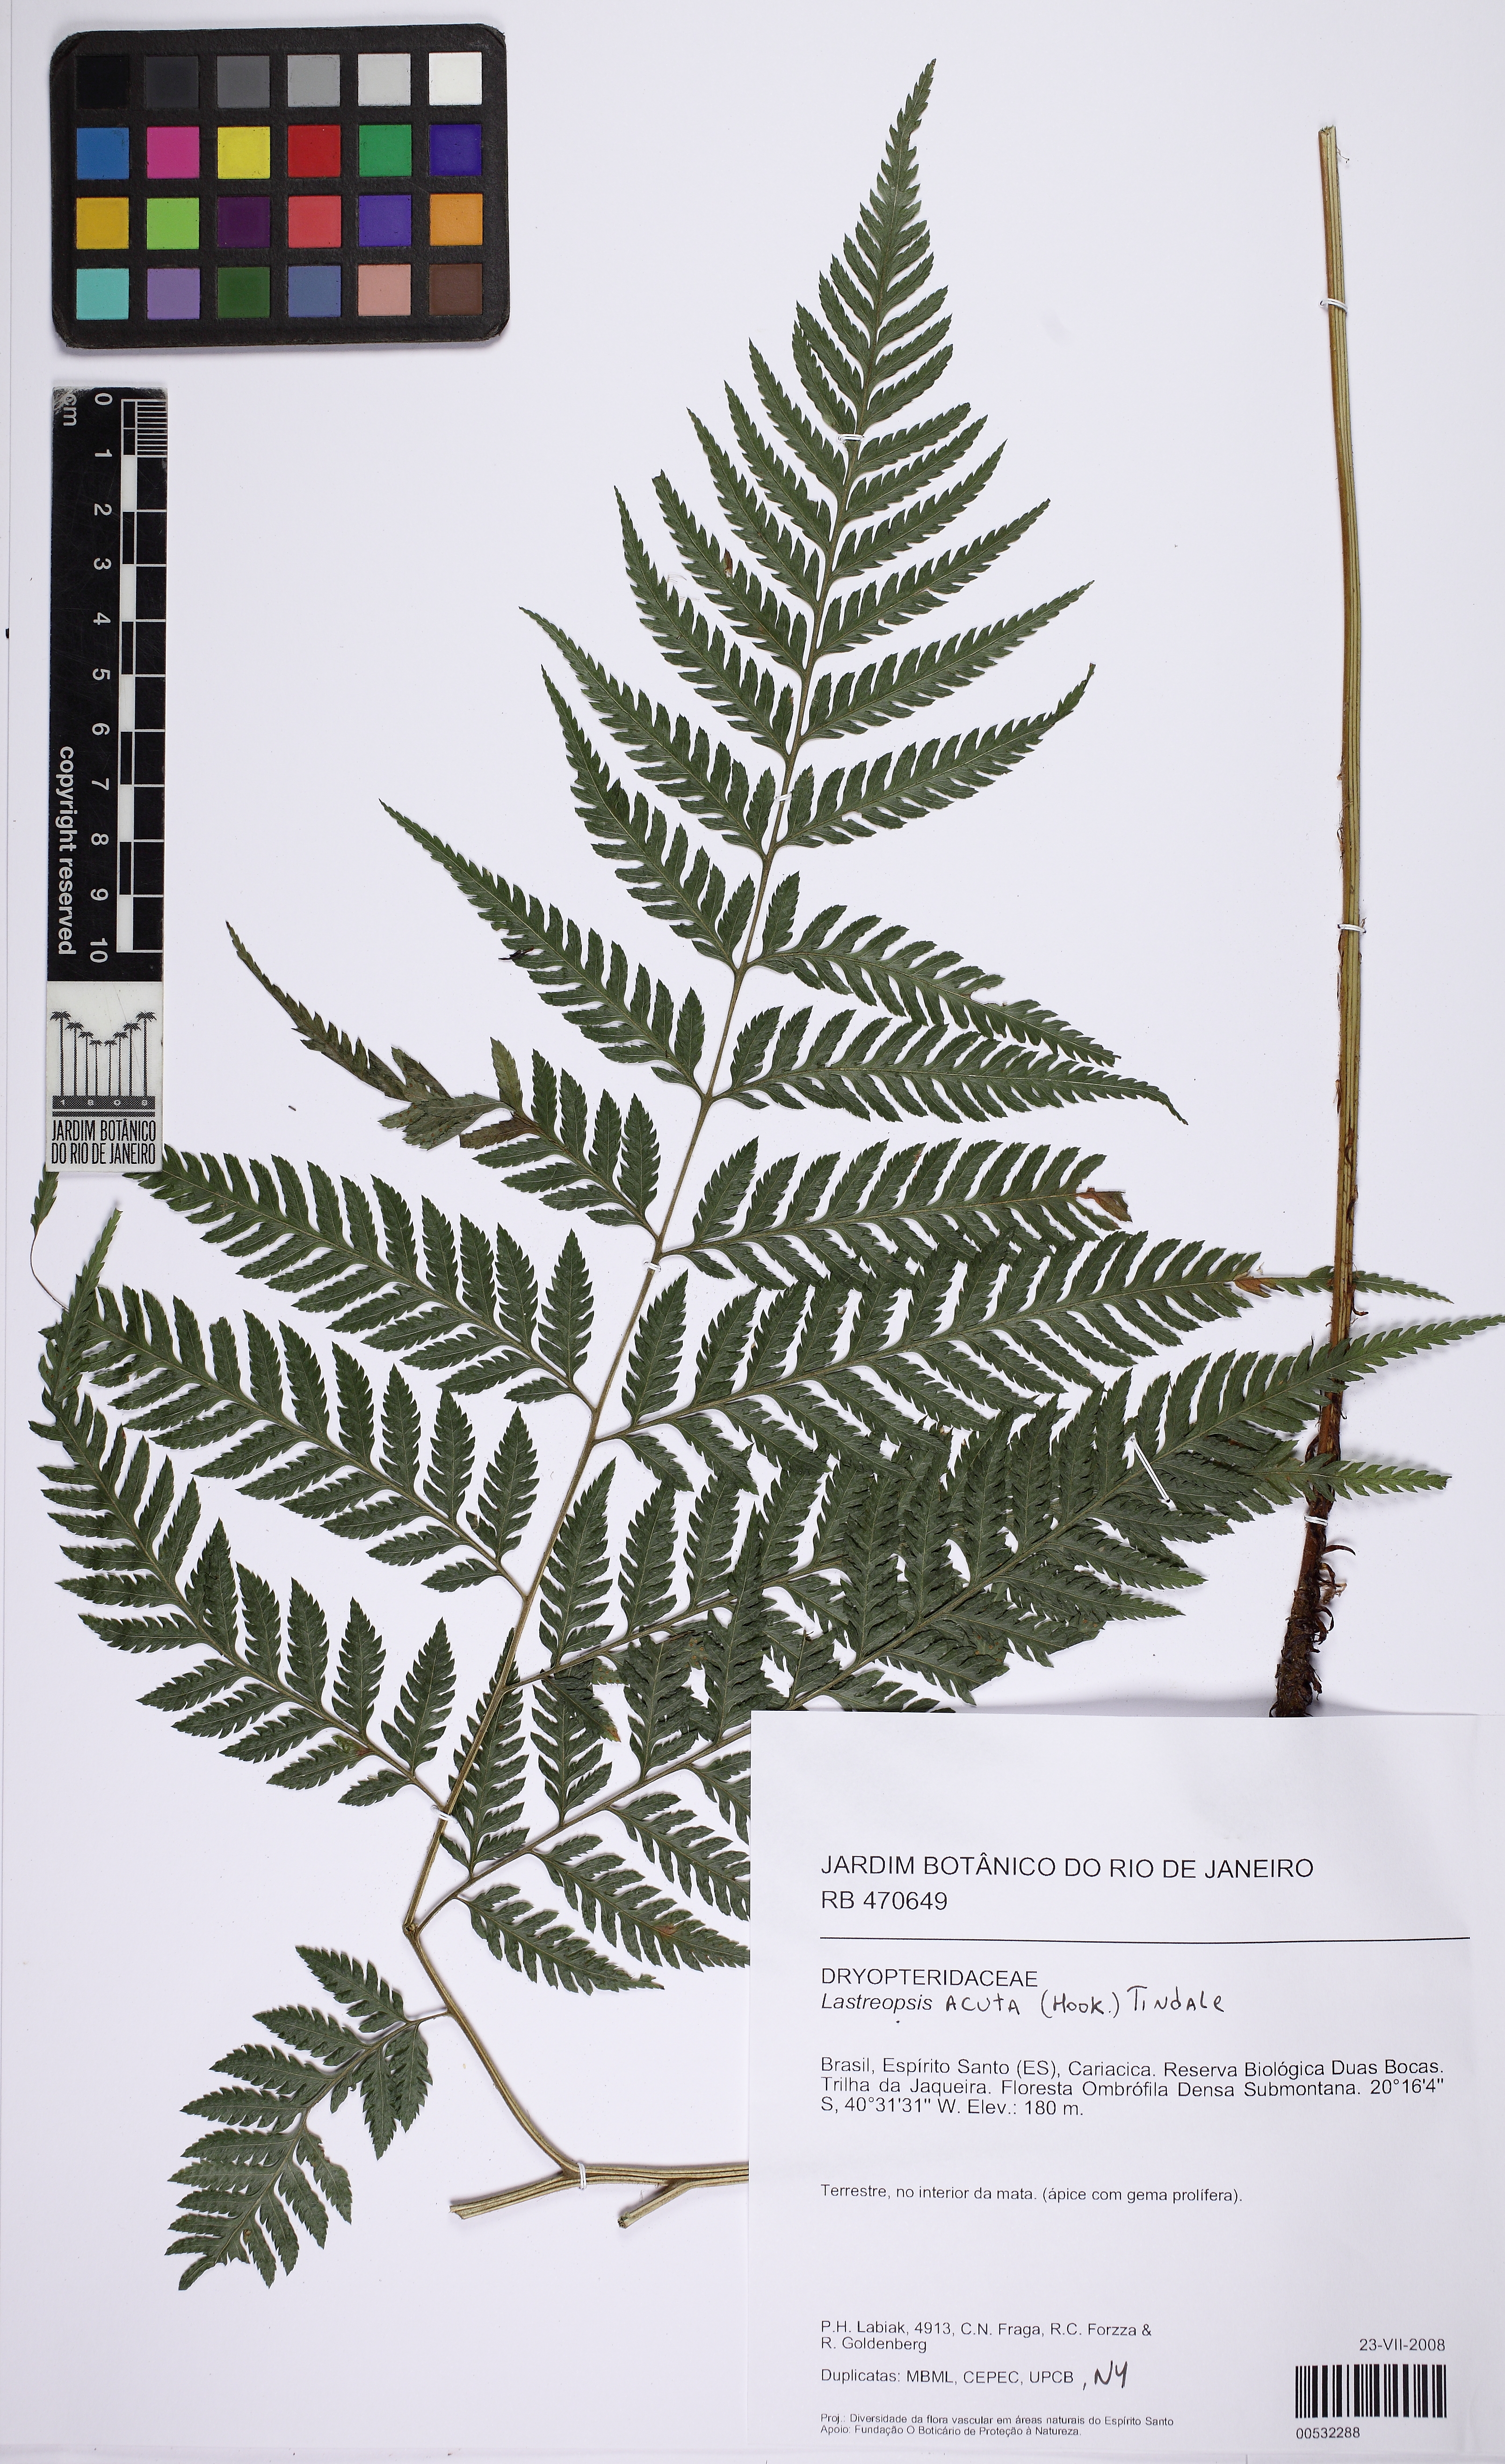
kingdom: Plantae
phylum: Tracheophyta
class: Polypodiopsida
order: Polypodiales
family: Dryopteridaceae
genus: Parapolystichum
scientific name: Parapolystichum acutum
